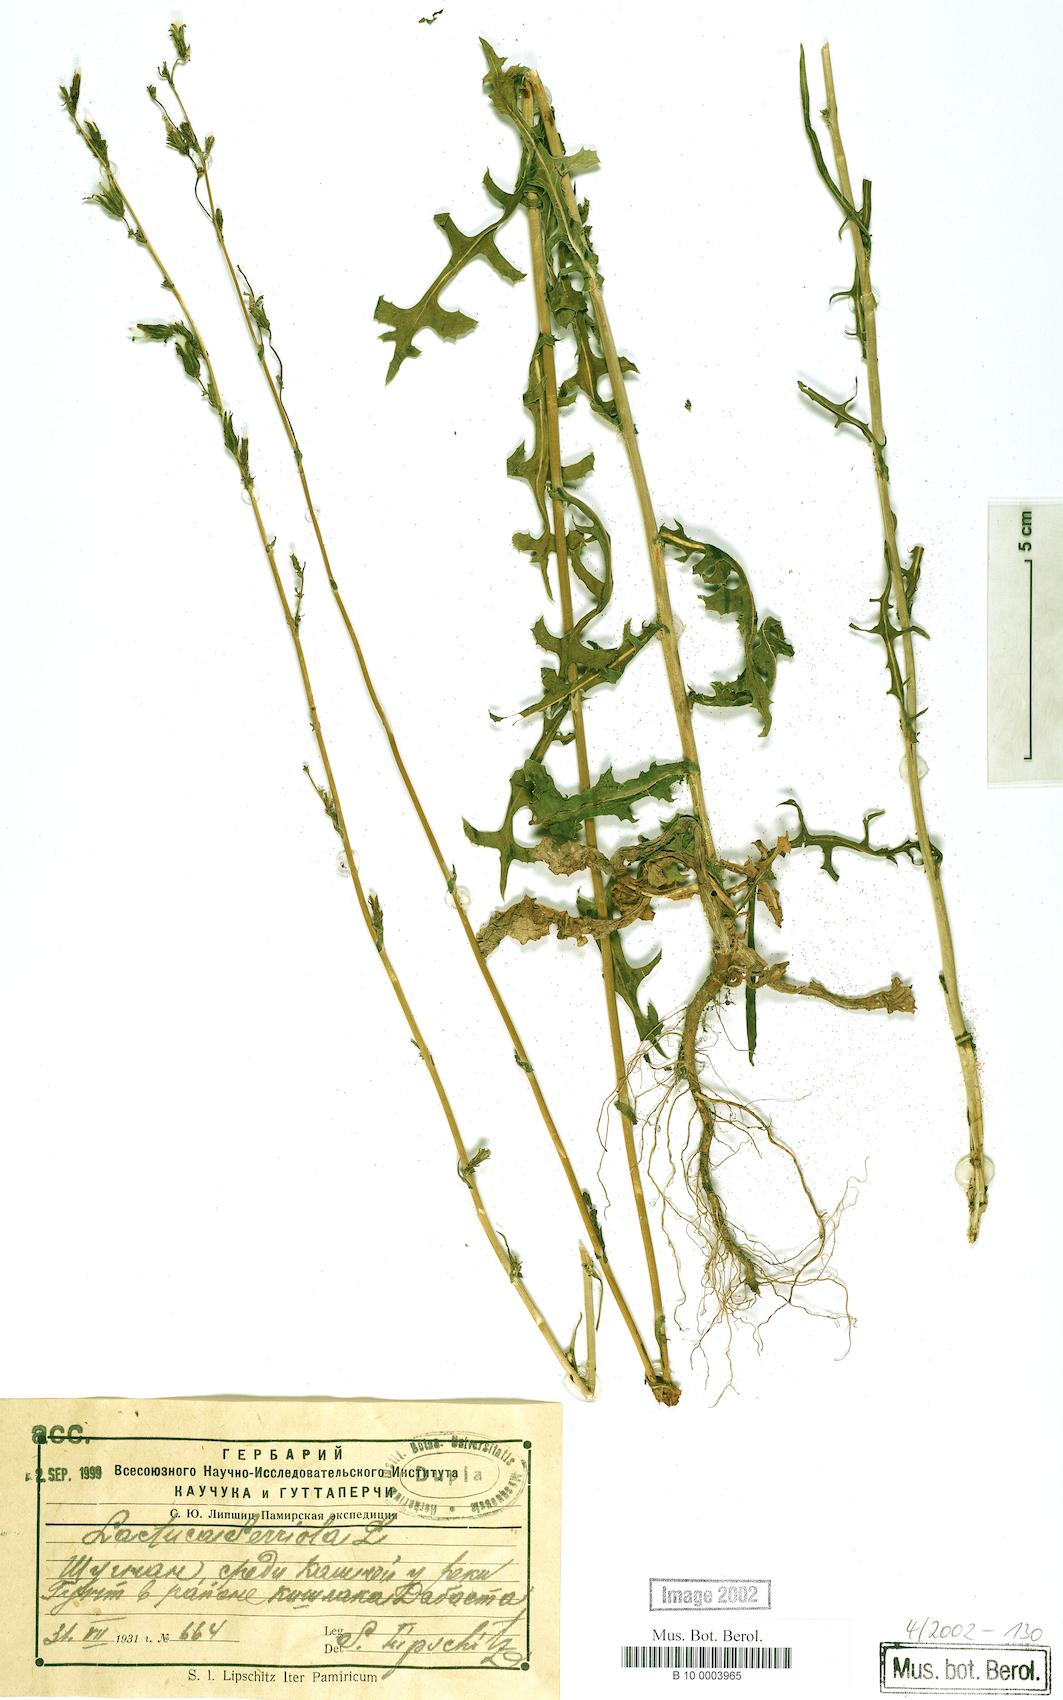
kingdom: Plantae
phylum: Tracheophyta
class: Magnoliopsida
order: Asterales
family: Asteraceae
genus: Lactuca
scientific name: Lactuca serriola
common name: Prickly lettuce
